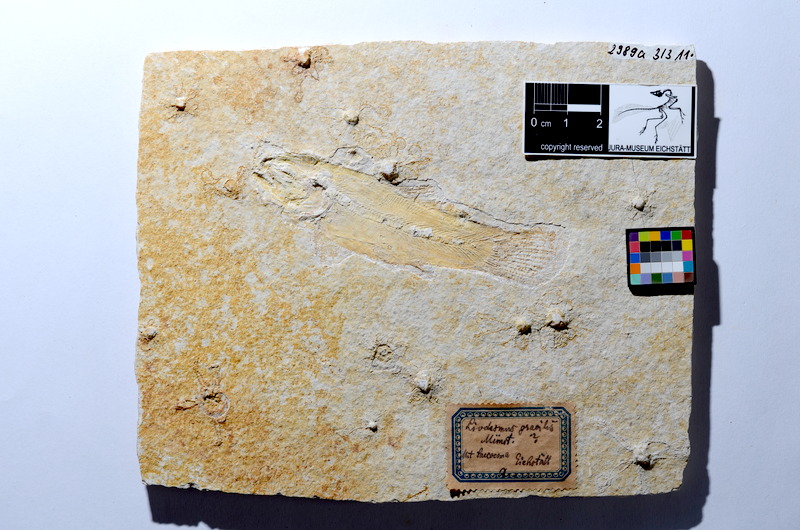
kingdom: Animalia
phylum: Chordata
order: Amiiformes
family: Amiidae
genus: Amiopsis
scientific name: Amiopsis lepidota
